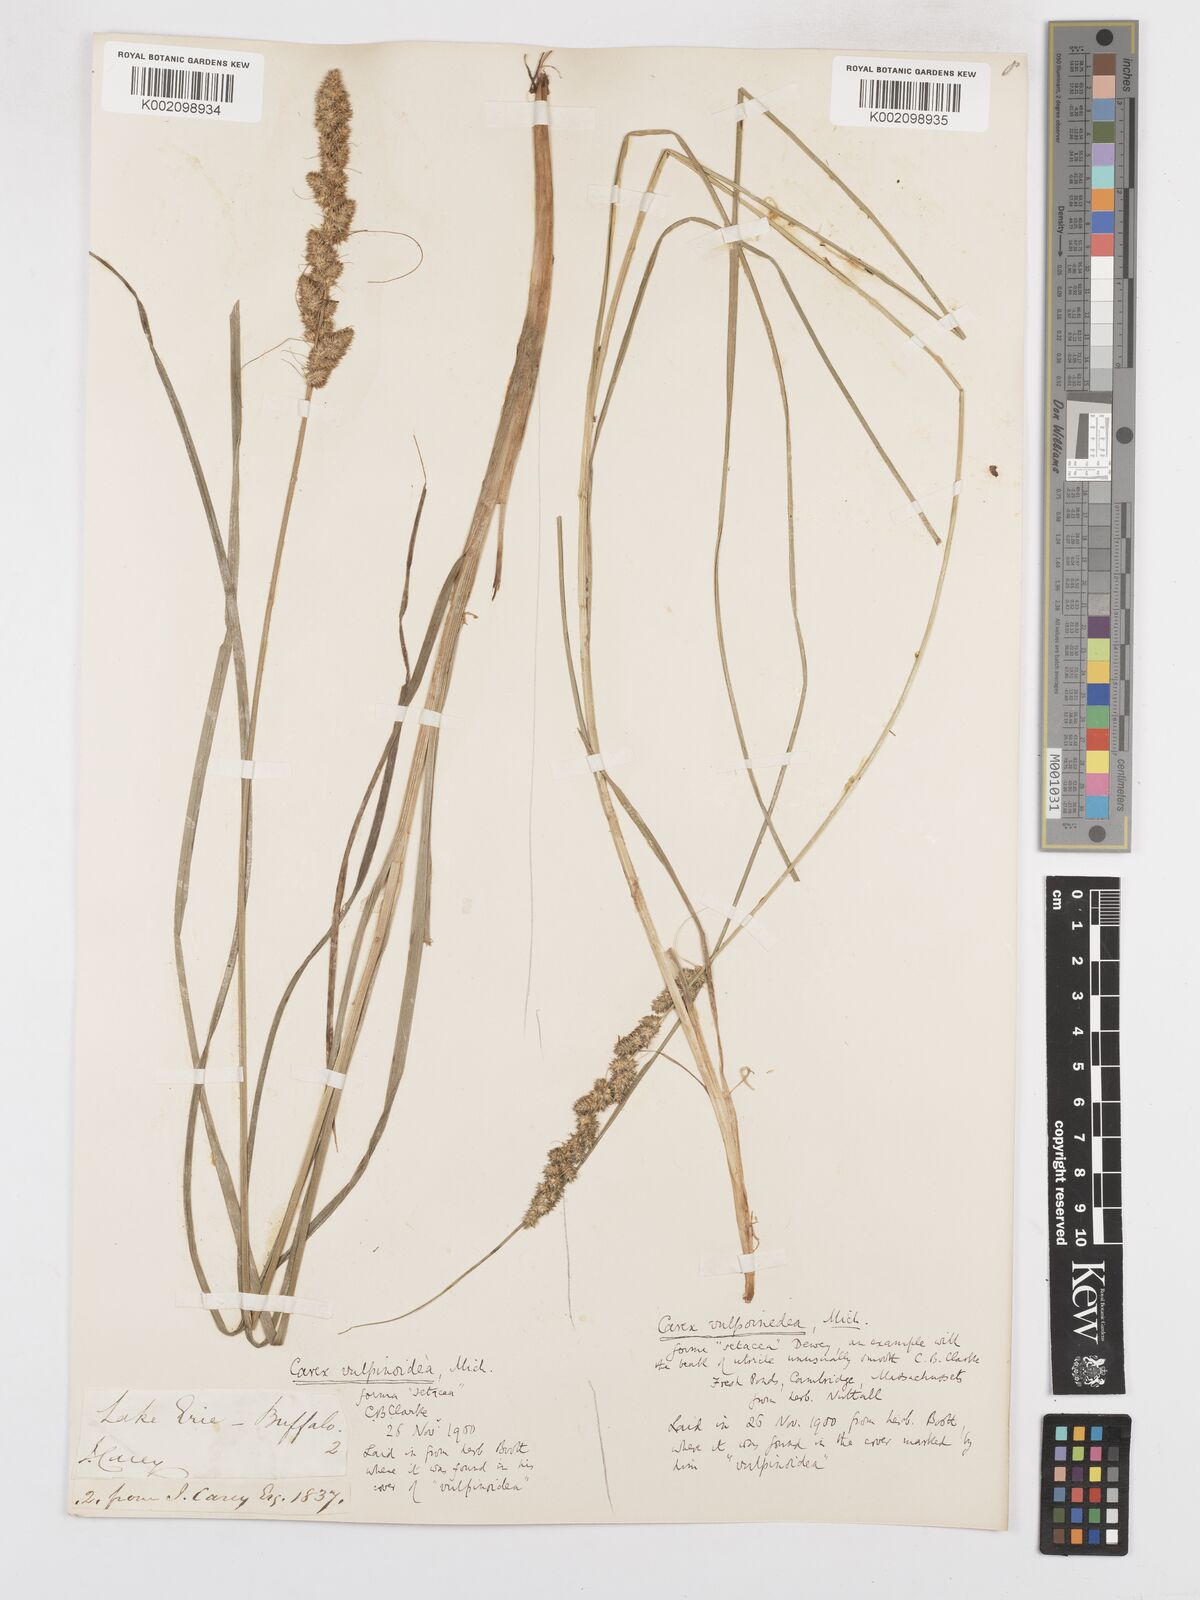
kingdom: Plantae
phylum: Tracheophyta
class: Liliopsida
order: Poales
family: Cyperaceae
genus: Carex
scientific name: Carex vulpinoidea
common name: American fox-sedge
